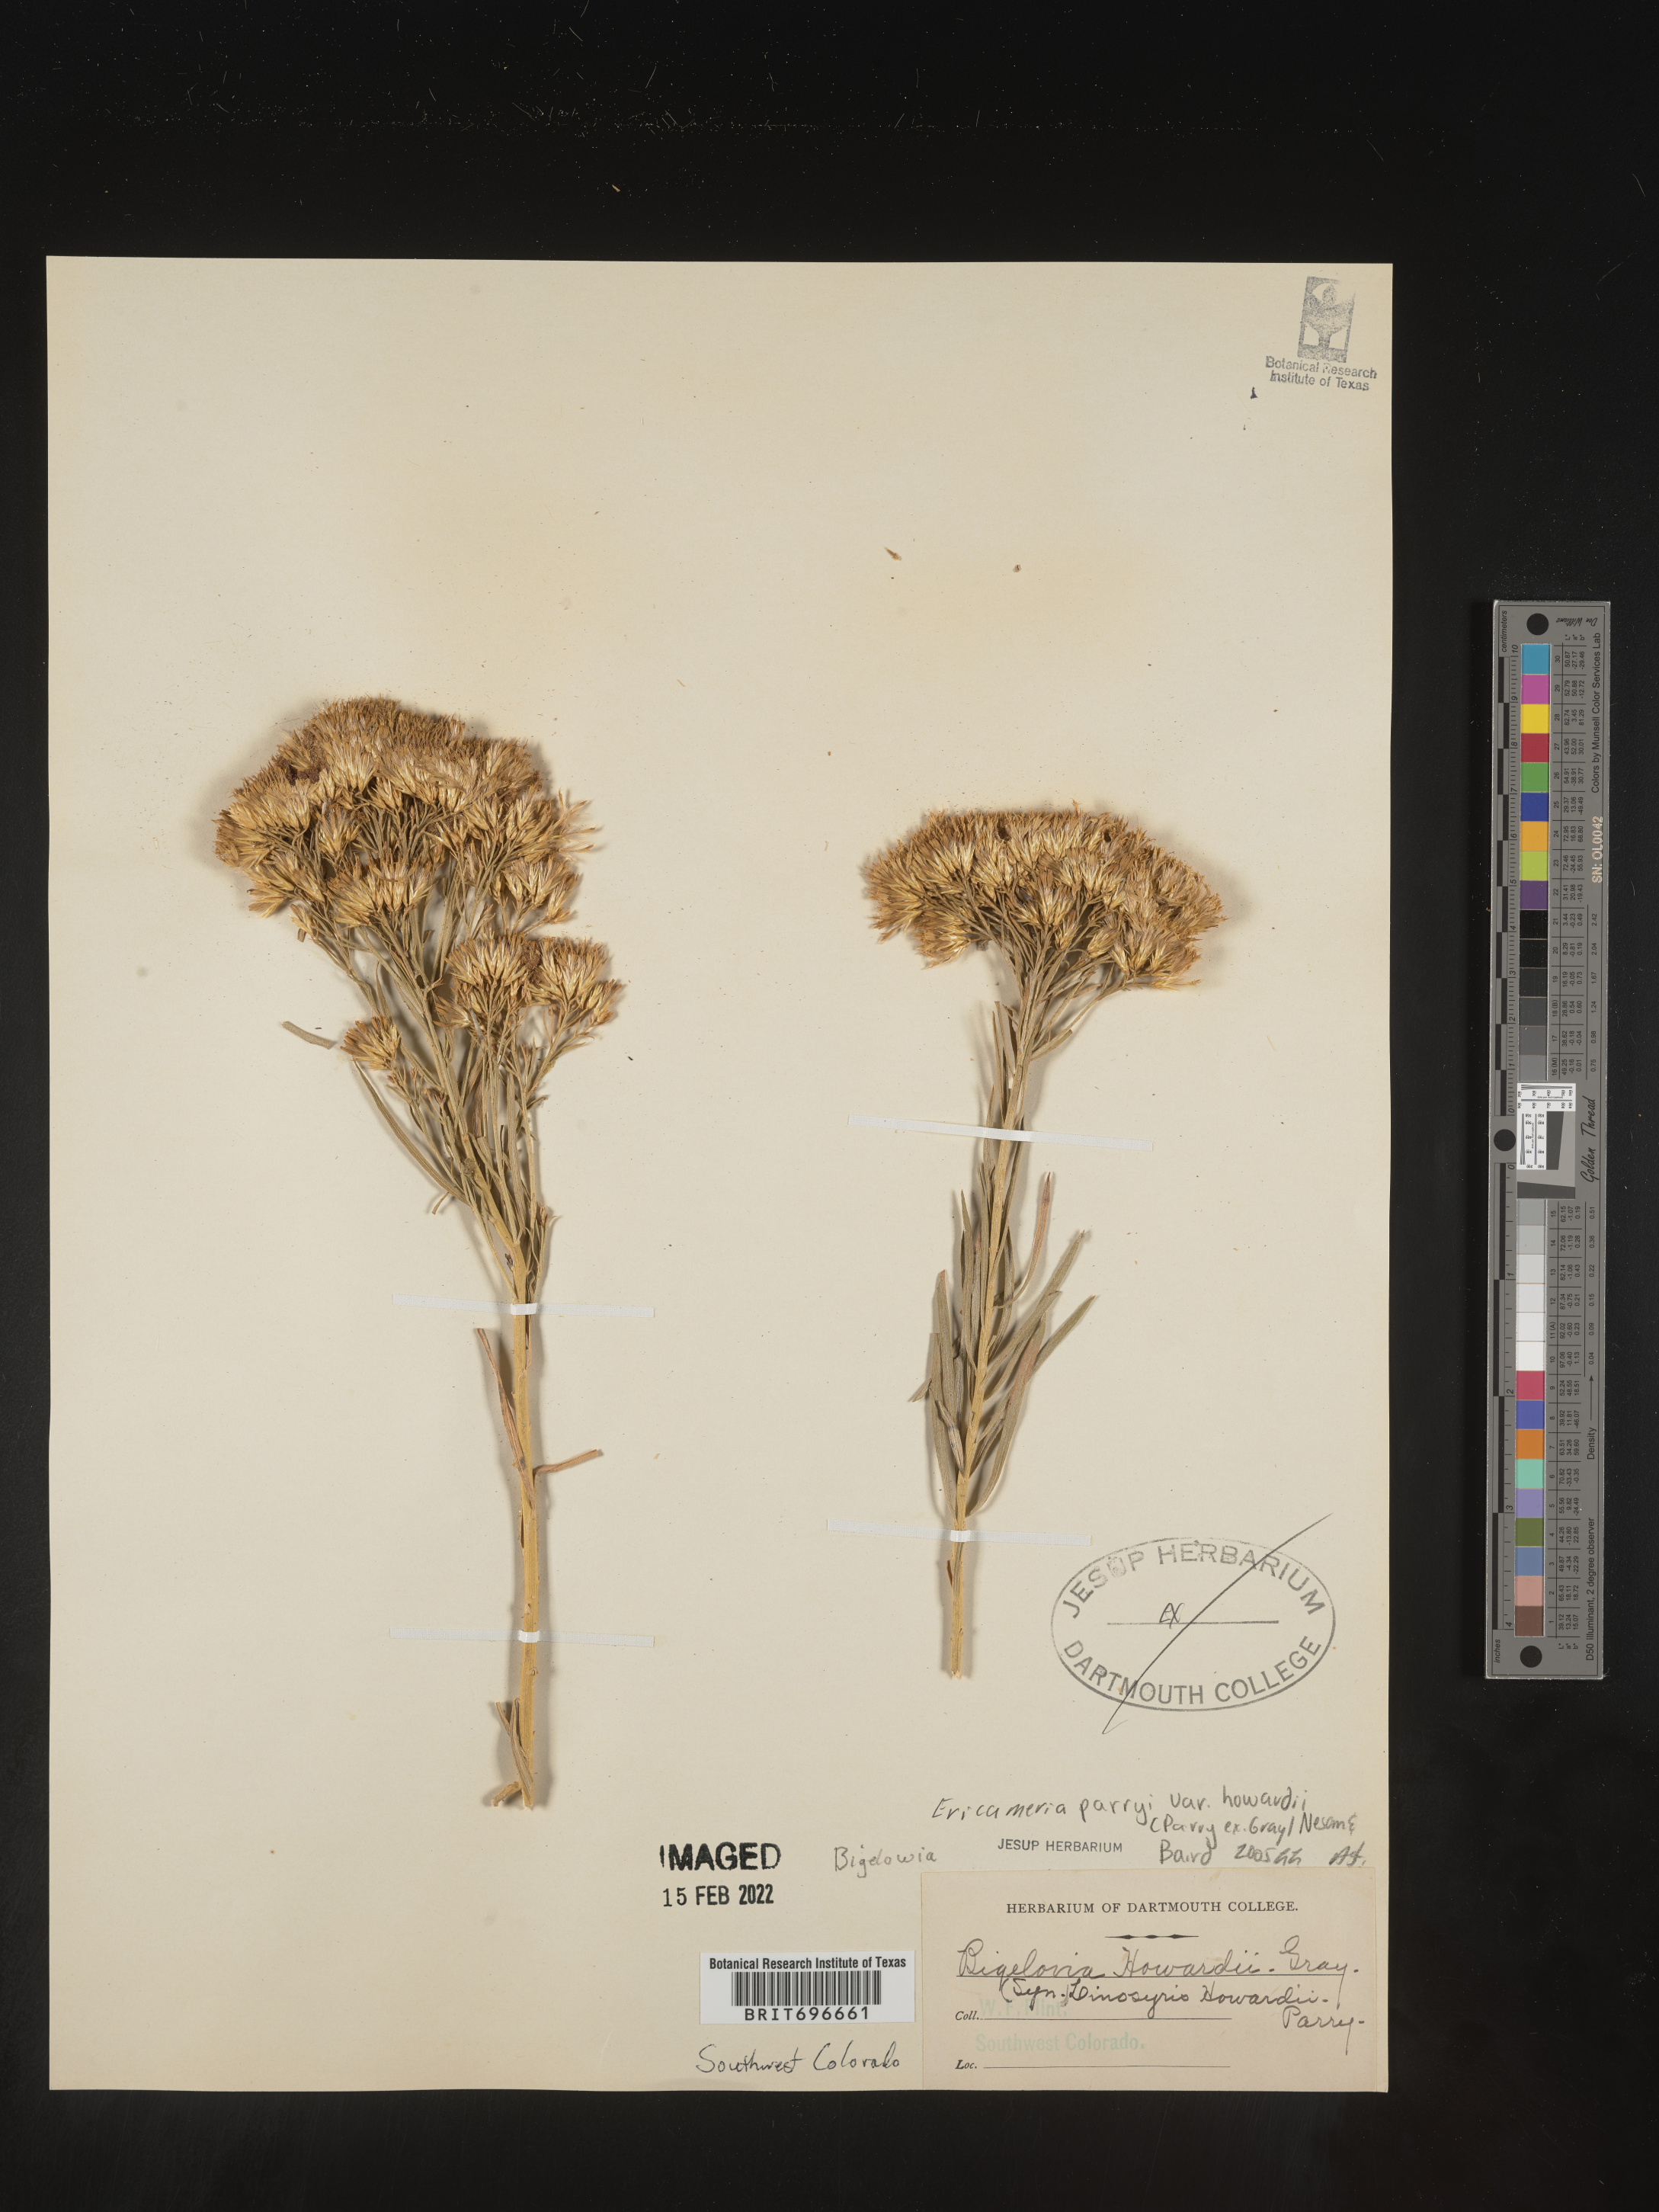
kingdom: Plantae
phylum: Tracheophyta
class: Magnoliopsida
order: Asterales
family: Asteraceae
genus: Ericameria
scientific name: Ericameria parryi
